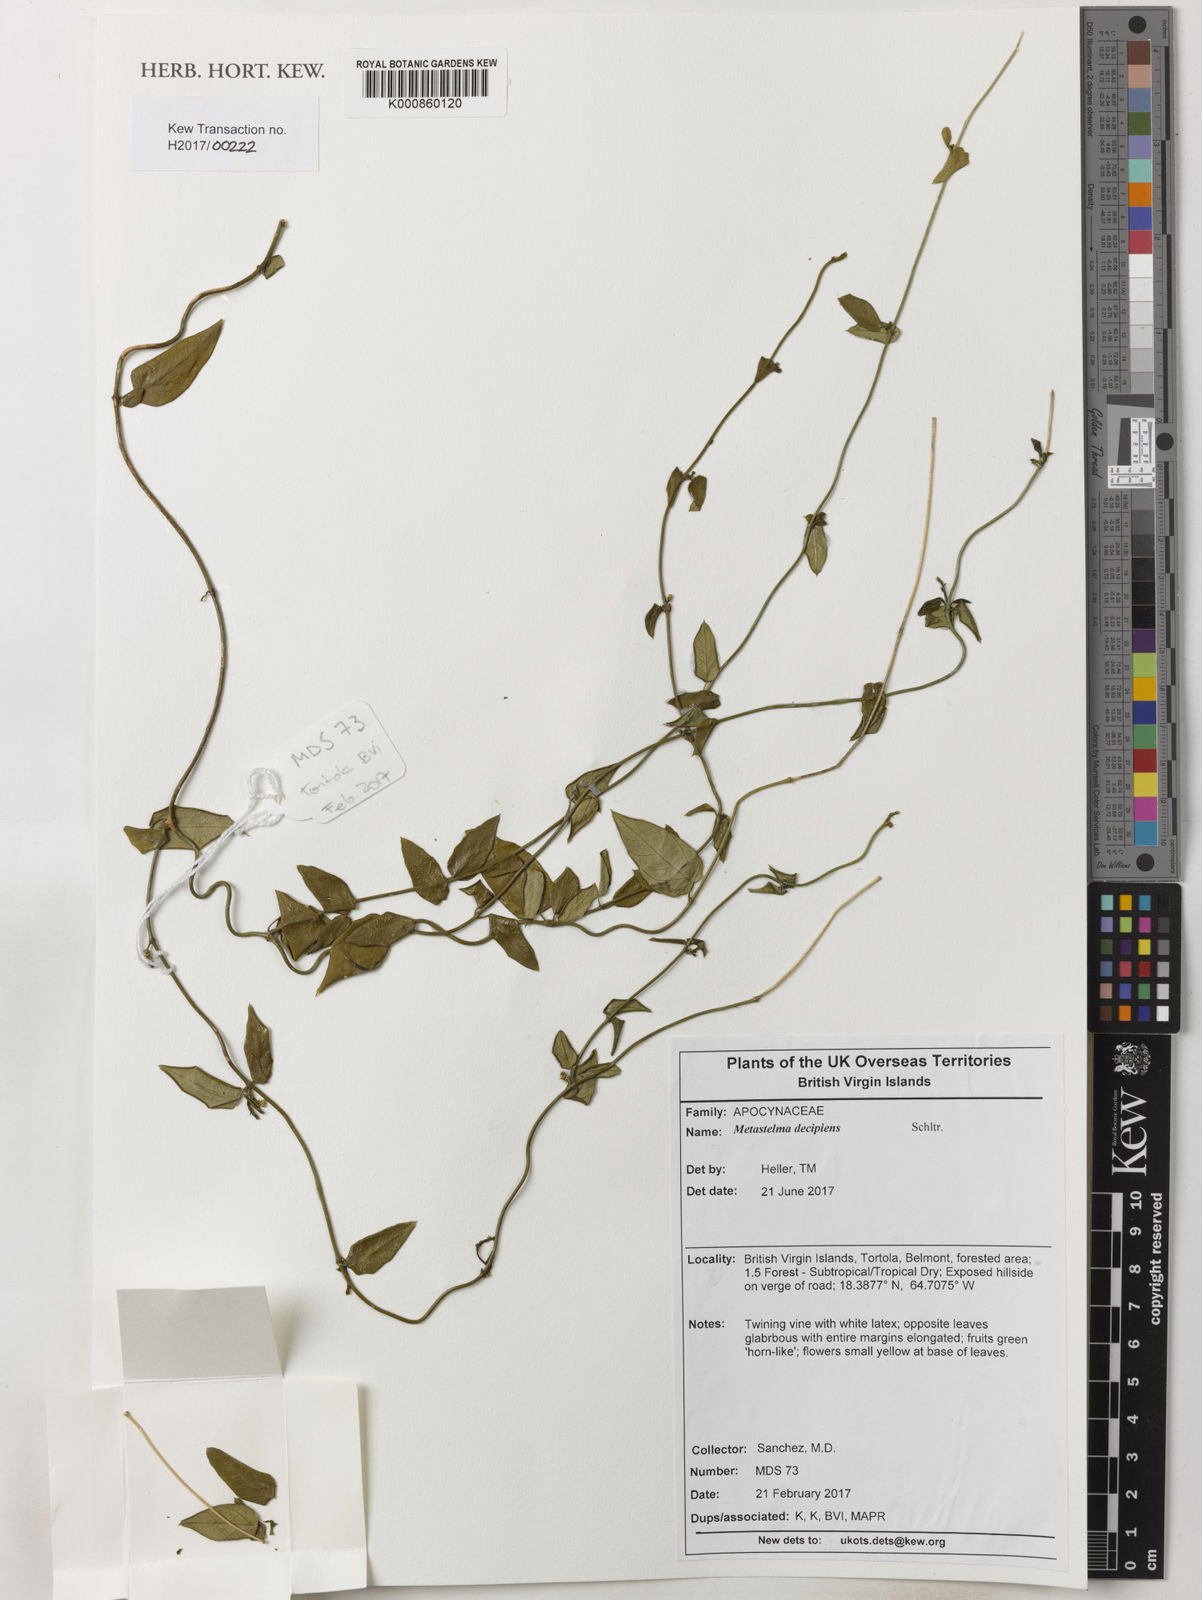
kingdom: Plantae
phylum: Tracheophyta
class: Magnoliopsida
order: Gentianales
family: Apocynaceae
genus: Metastelma
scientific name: Metastelma decipiens
